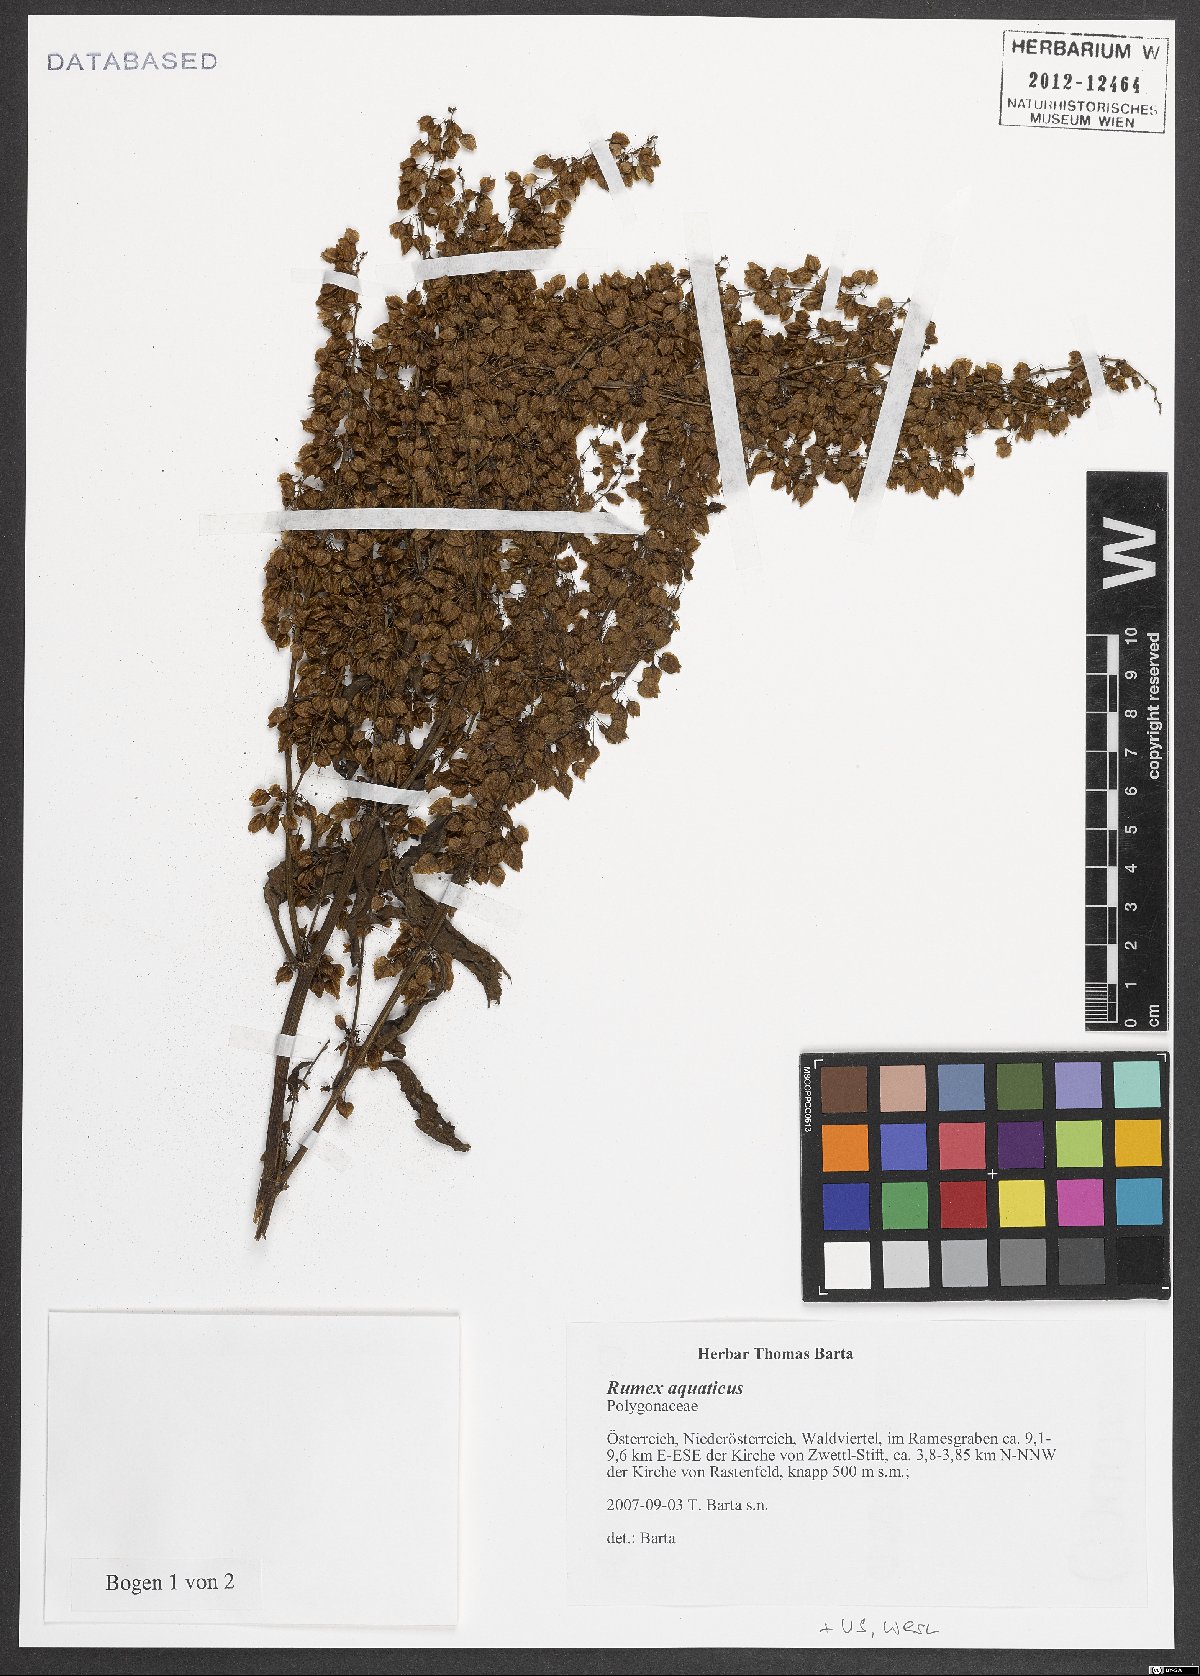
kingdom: Plantae
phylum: Tracheophyta
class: Magnoliopsida
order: Caryophyllales
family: Polygonaceae
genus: Rumex
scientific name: Rumex aquaticus
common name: Scottish dock
